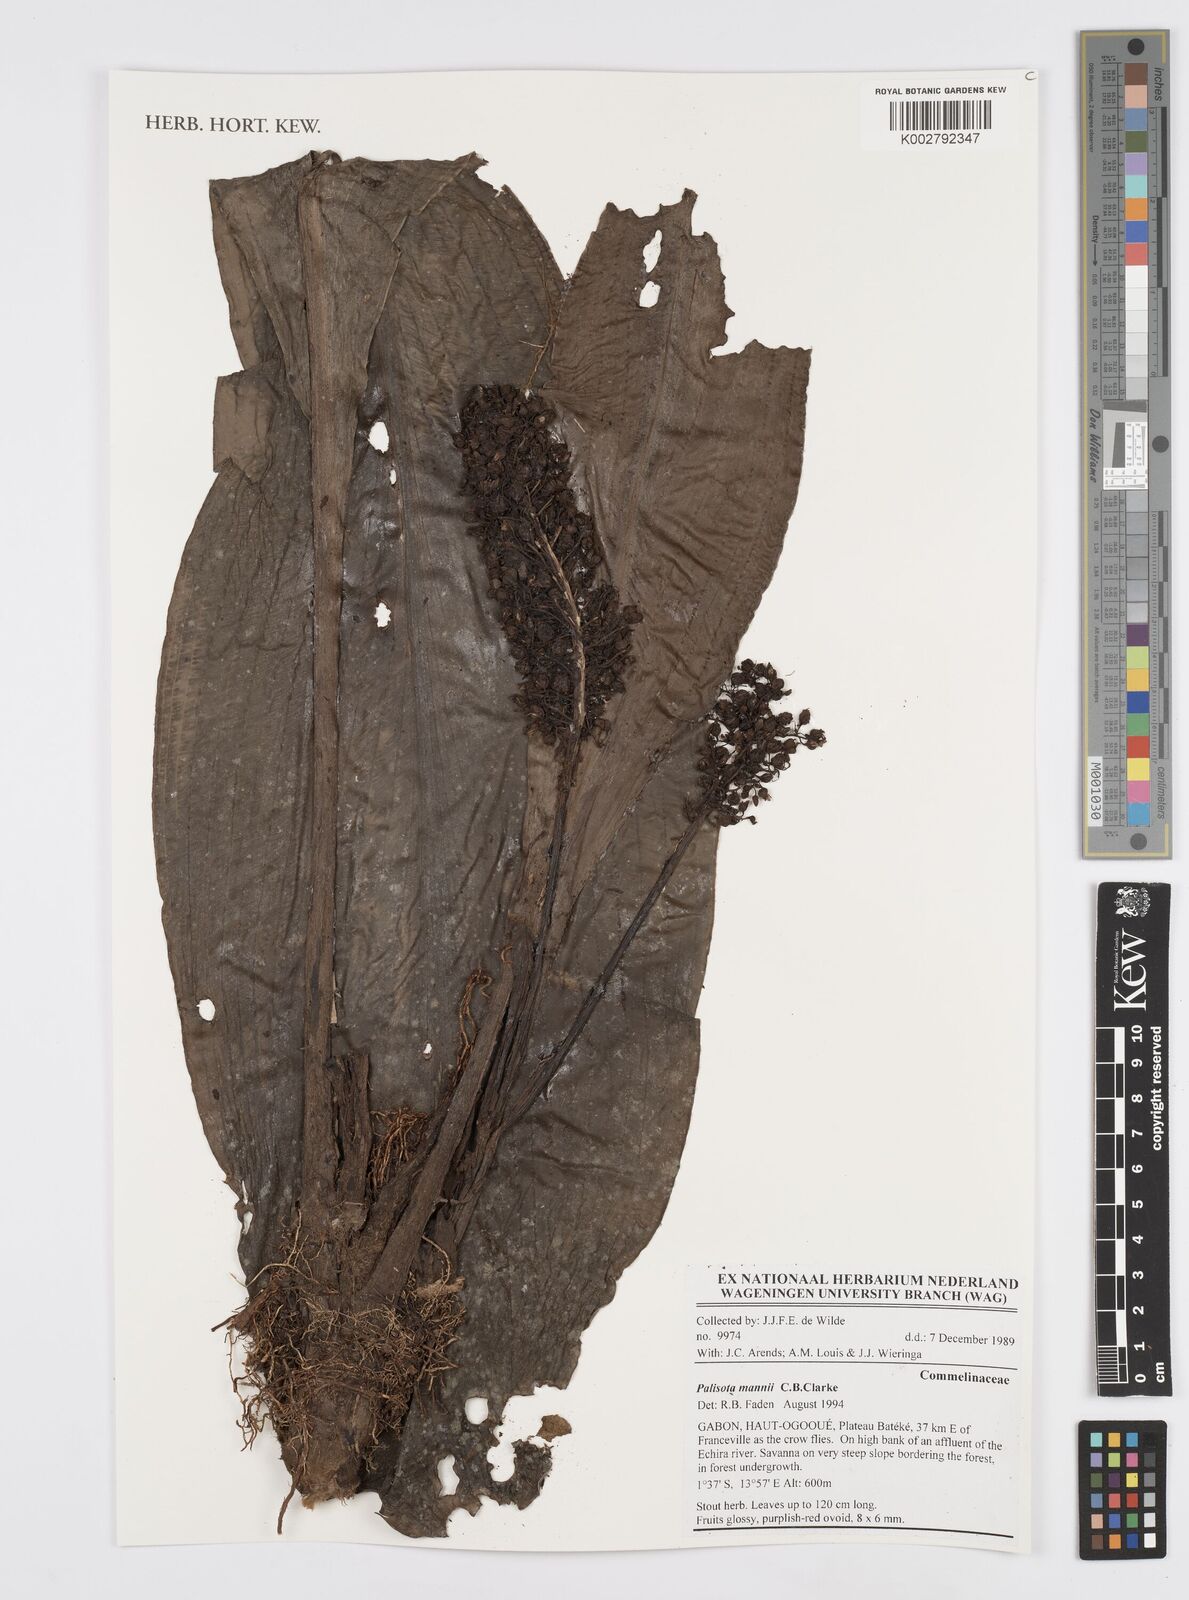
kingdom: Plantae
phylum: Tracheophyta
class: Liliopsida
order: Commelinales
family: Commelinaceae
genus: Palisota
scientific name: Palisota mannii
